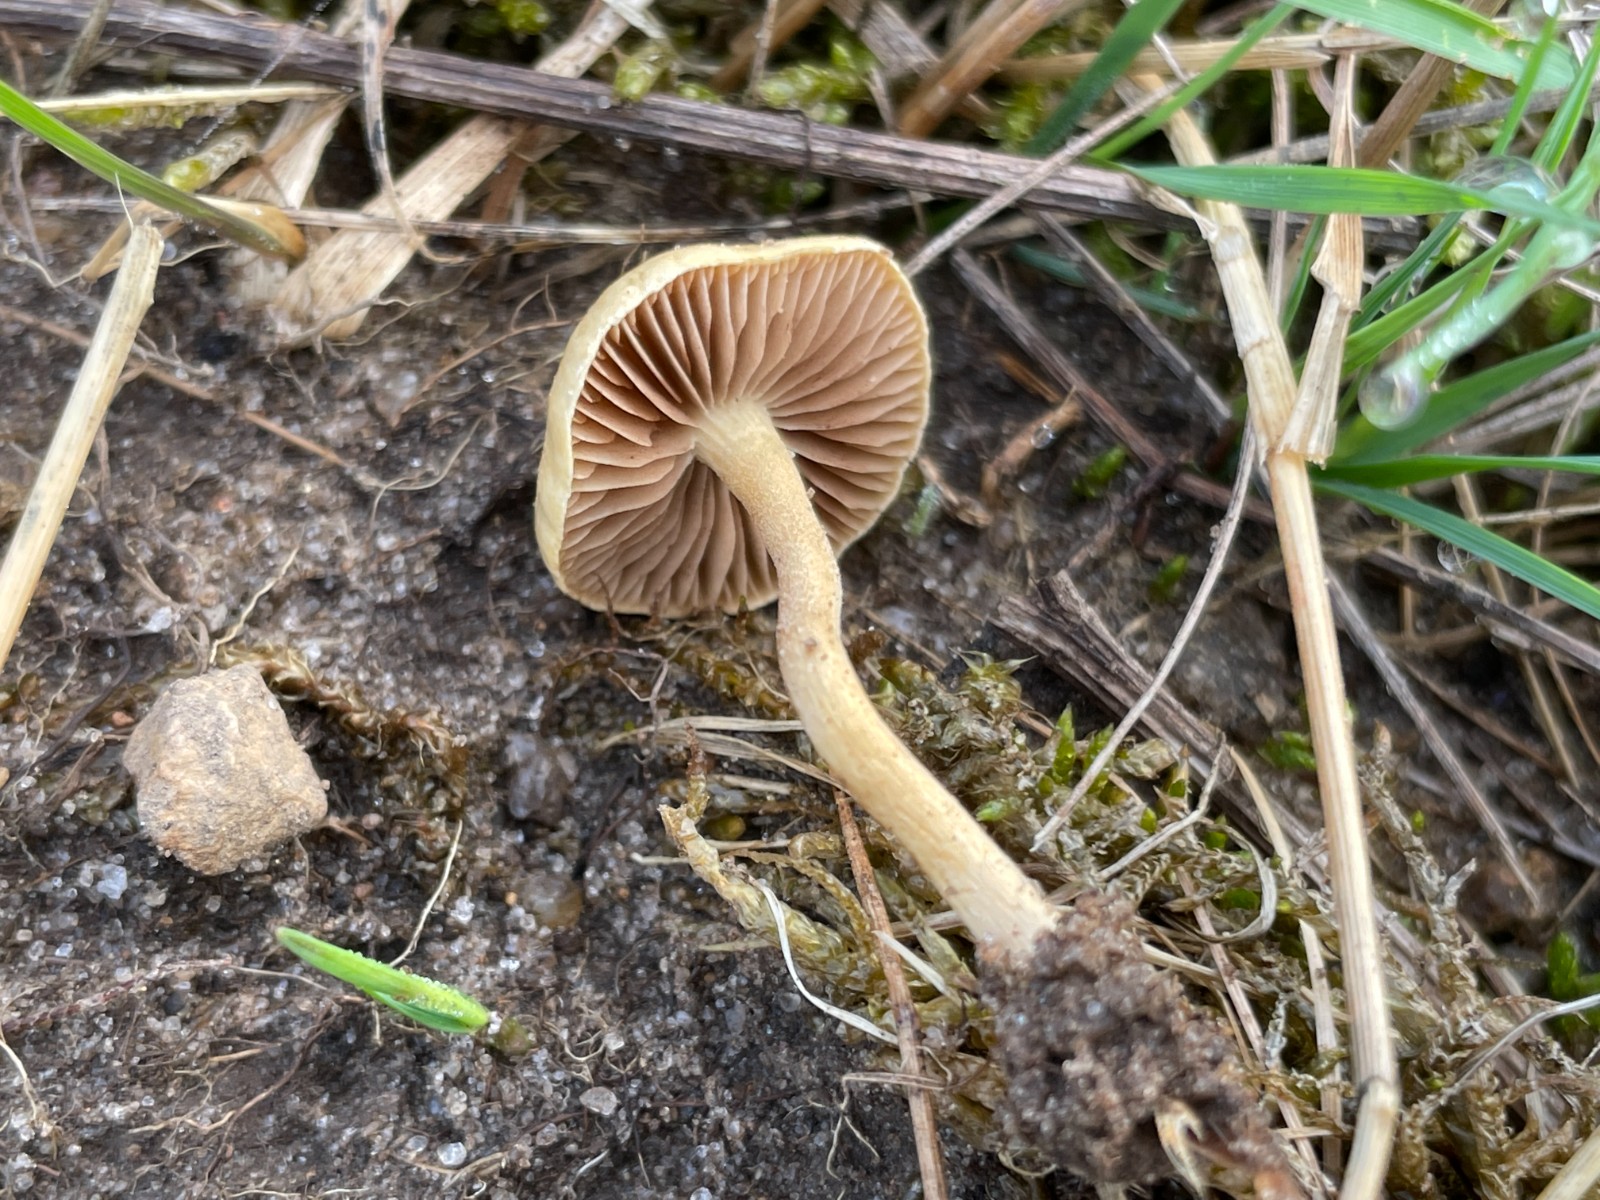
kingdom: Fungi
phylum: Basidiomycota
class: Agaricomycetes
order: Agaricales
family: Strophariaceae
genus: Agrocybe
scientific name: Agrocybe pediades
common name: almindelig agerhat
